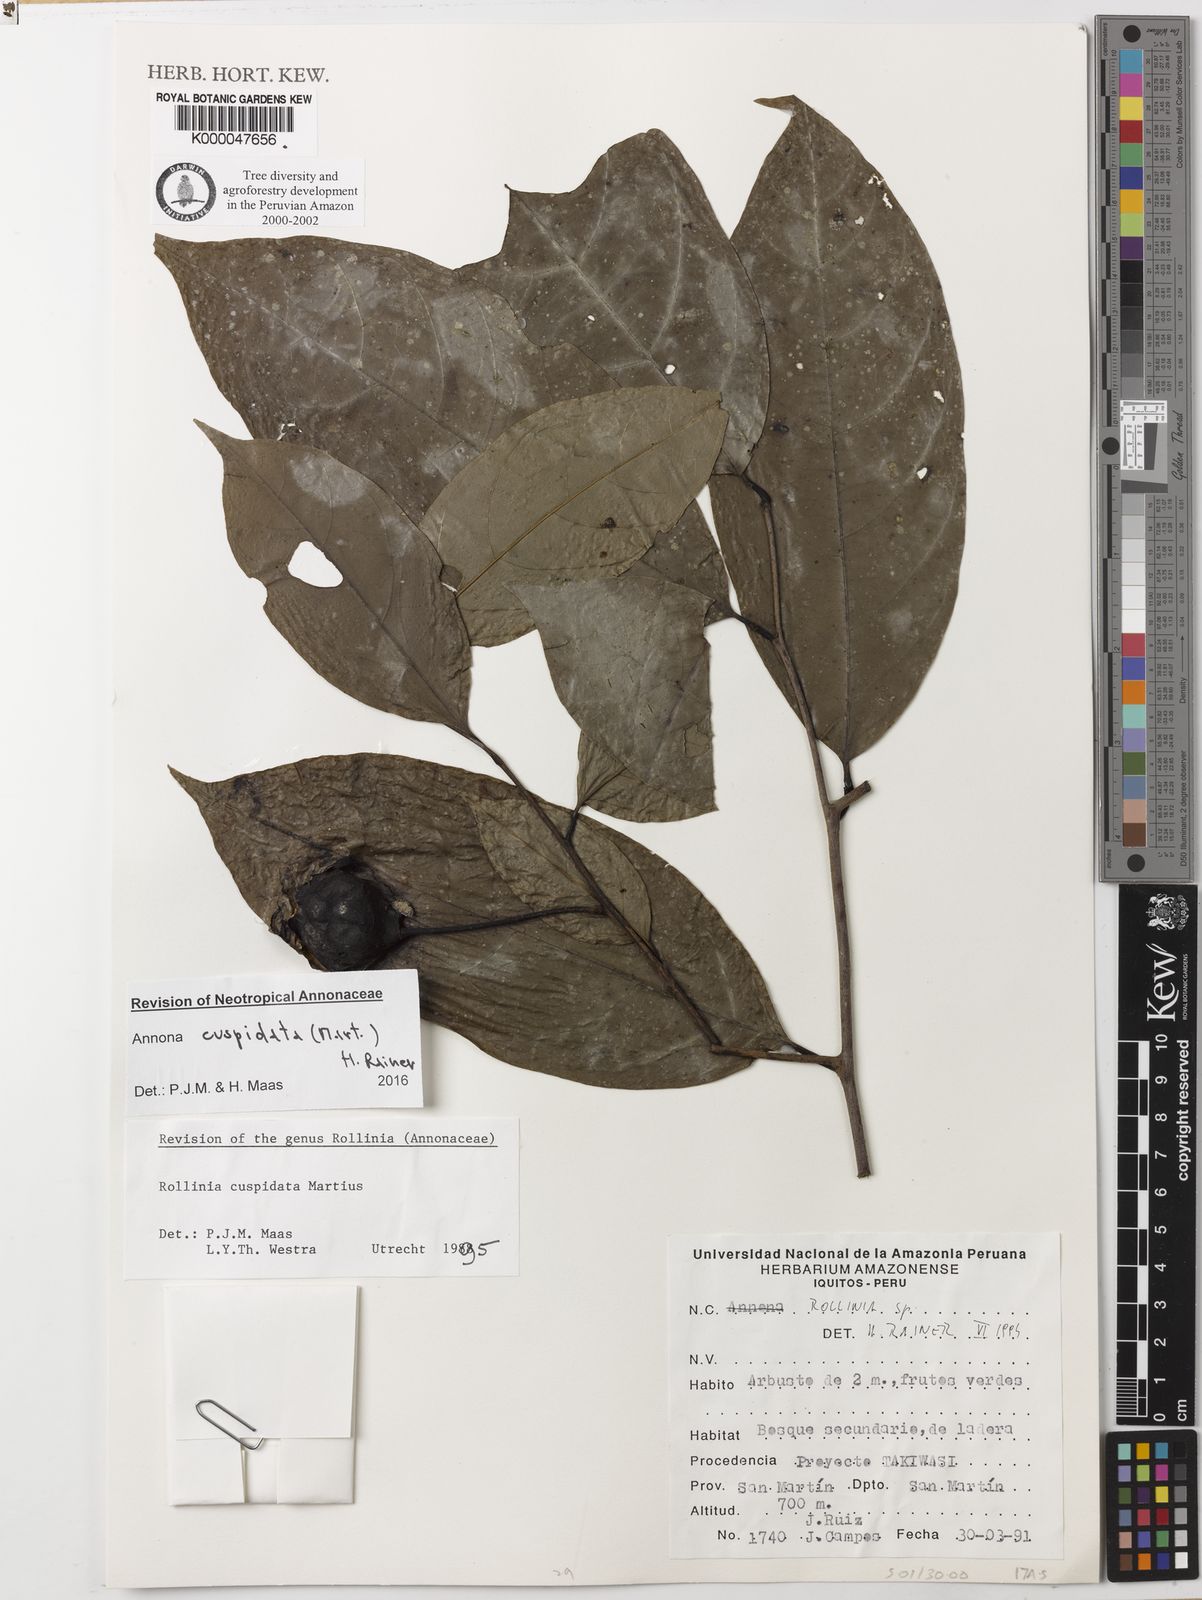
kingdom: Plantae
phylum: Tracheophyta
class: Magnoliopsida
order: Magnoliales
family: Annonaceae
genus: Annona
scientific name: Annona cuspidata
